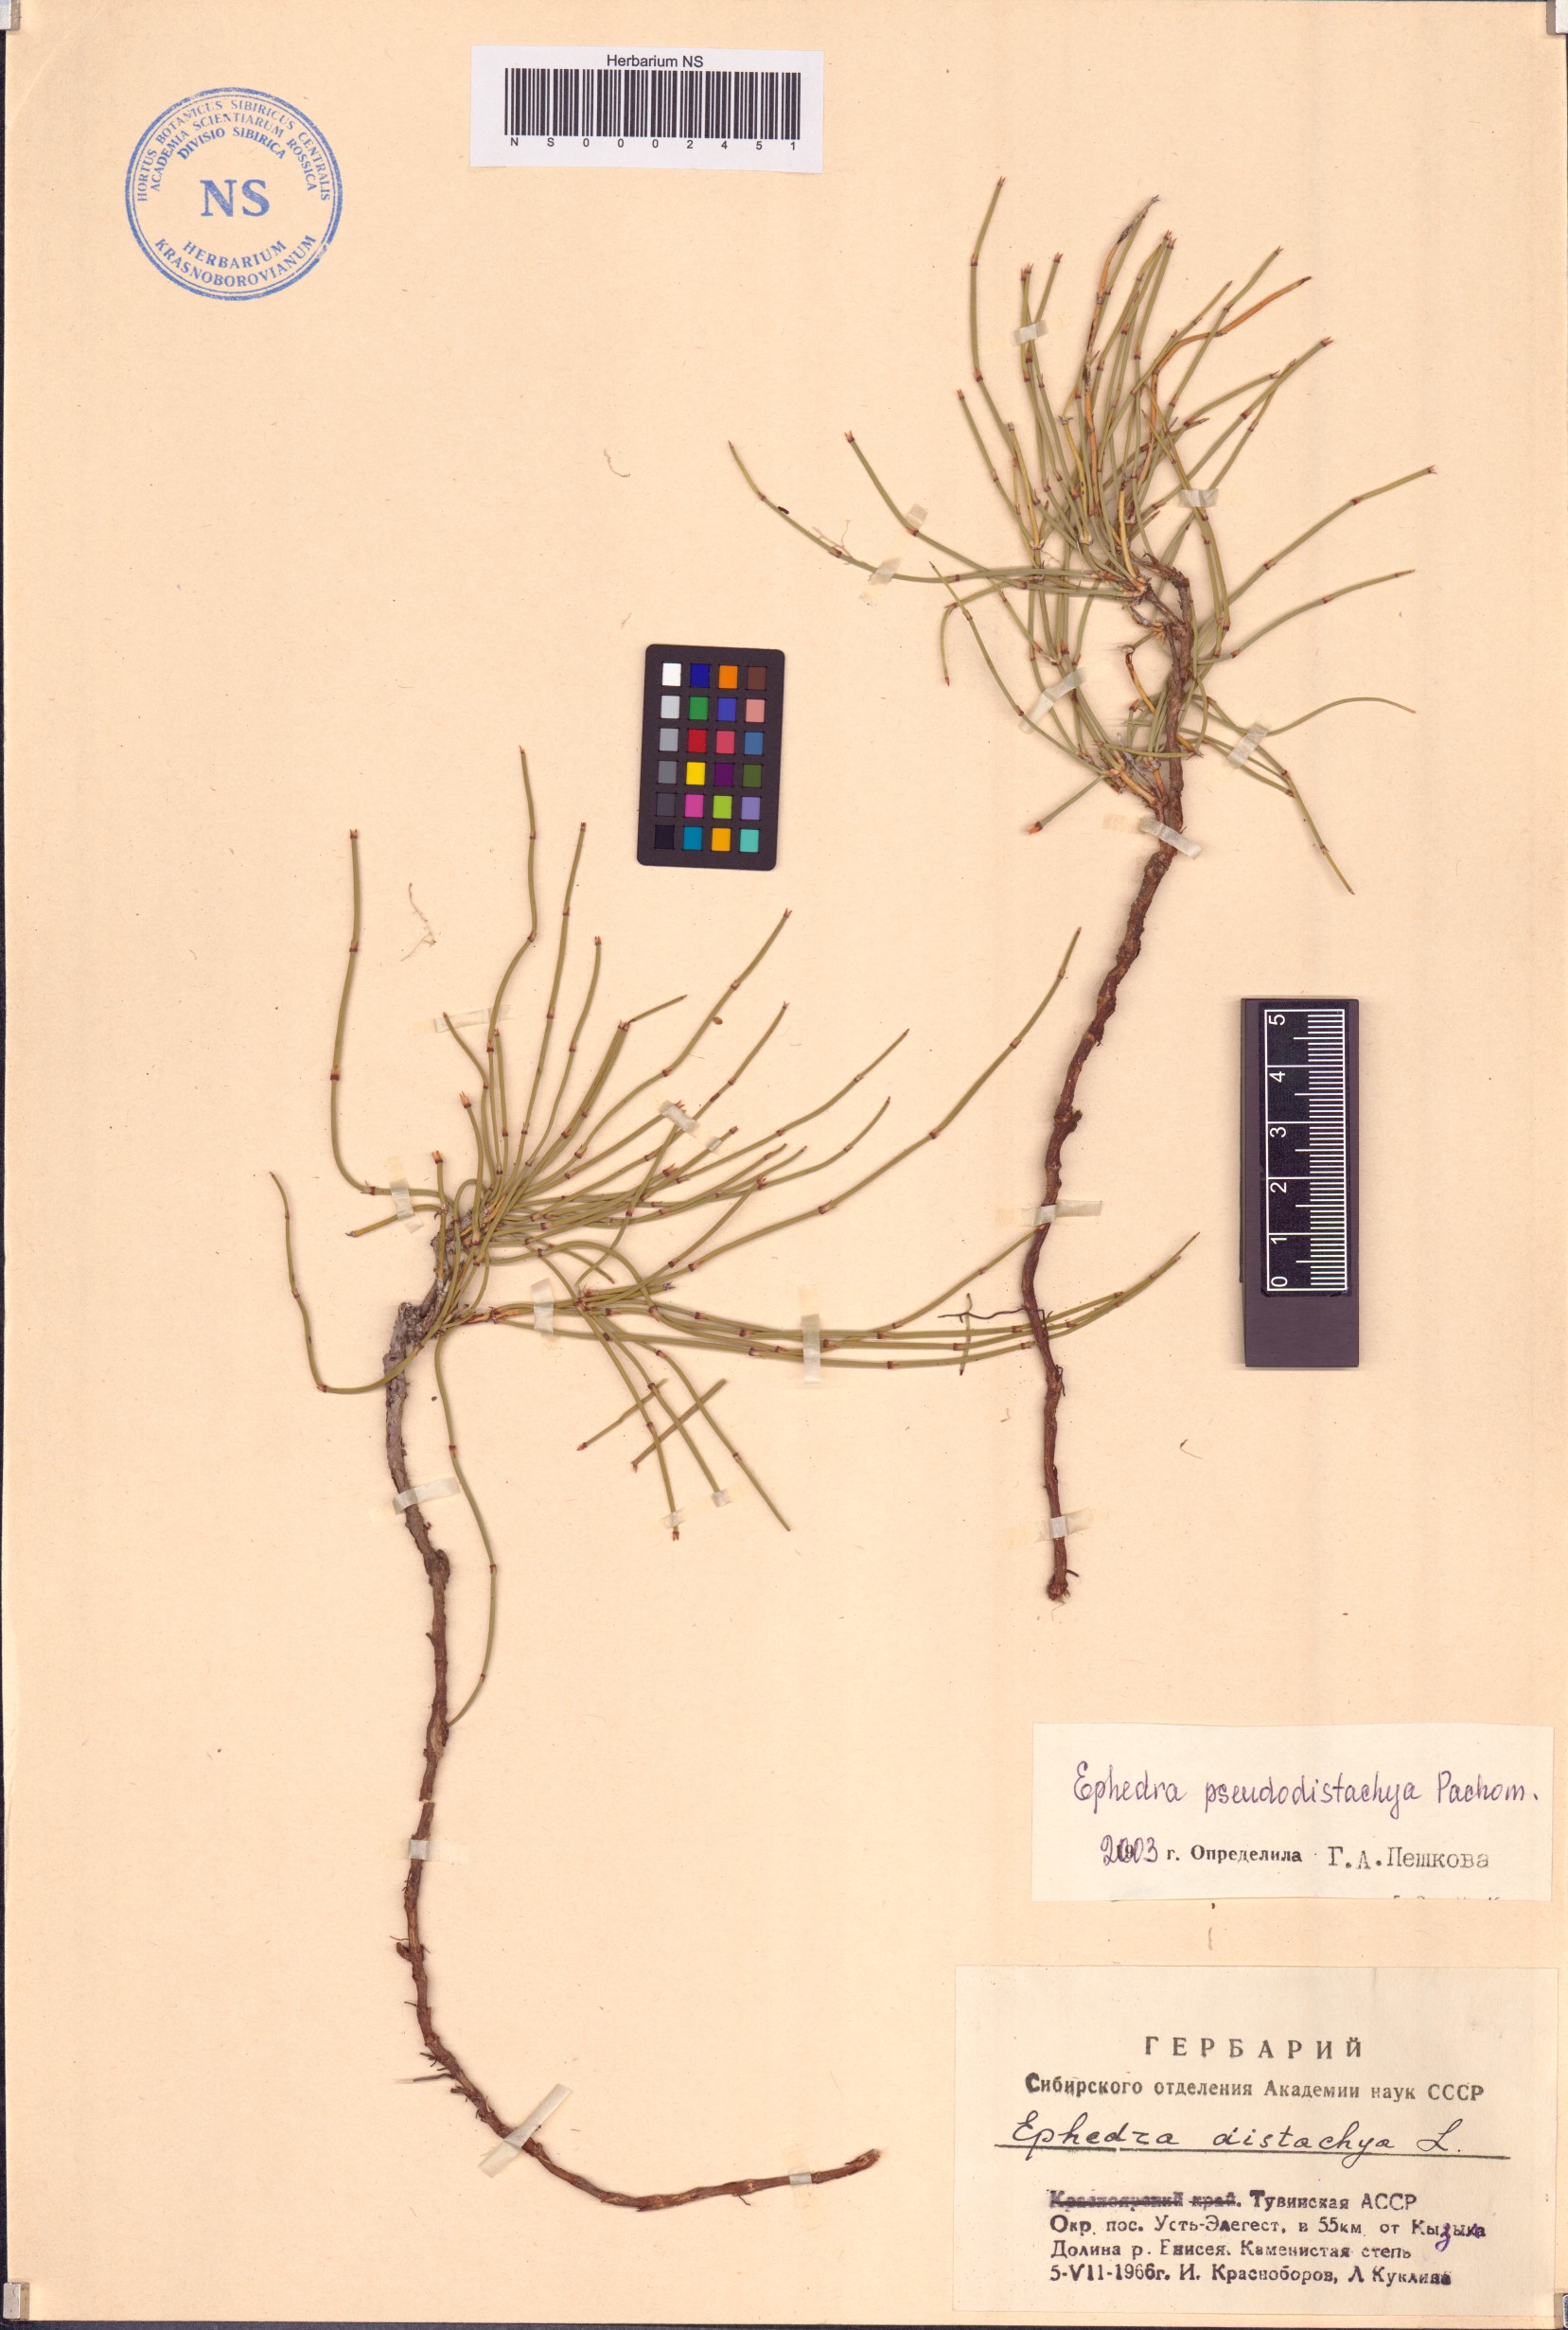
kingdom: Plantae
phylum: Tracheophyta
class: Gnetopsida
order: Ephedrales
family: Ephedraceae
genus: Ephedra
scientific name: Ephedra pseudodistachya
